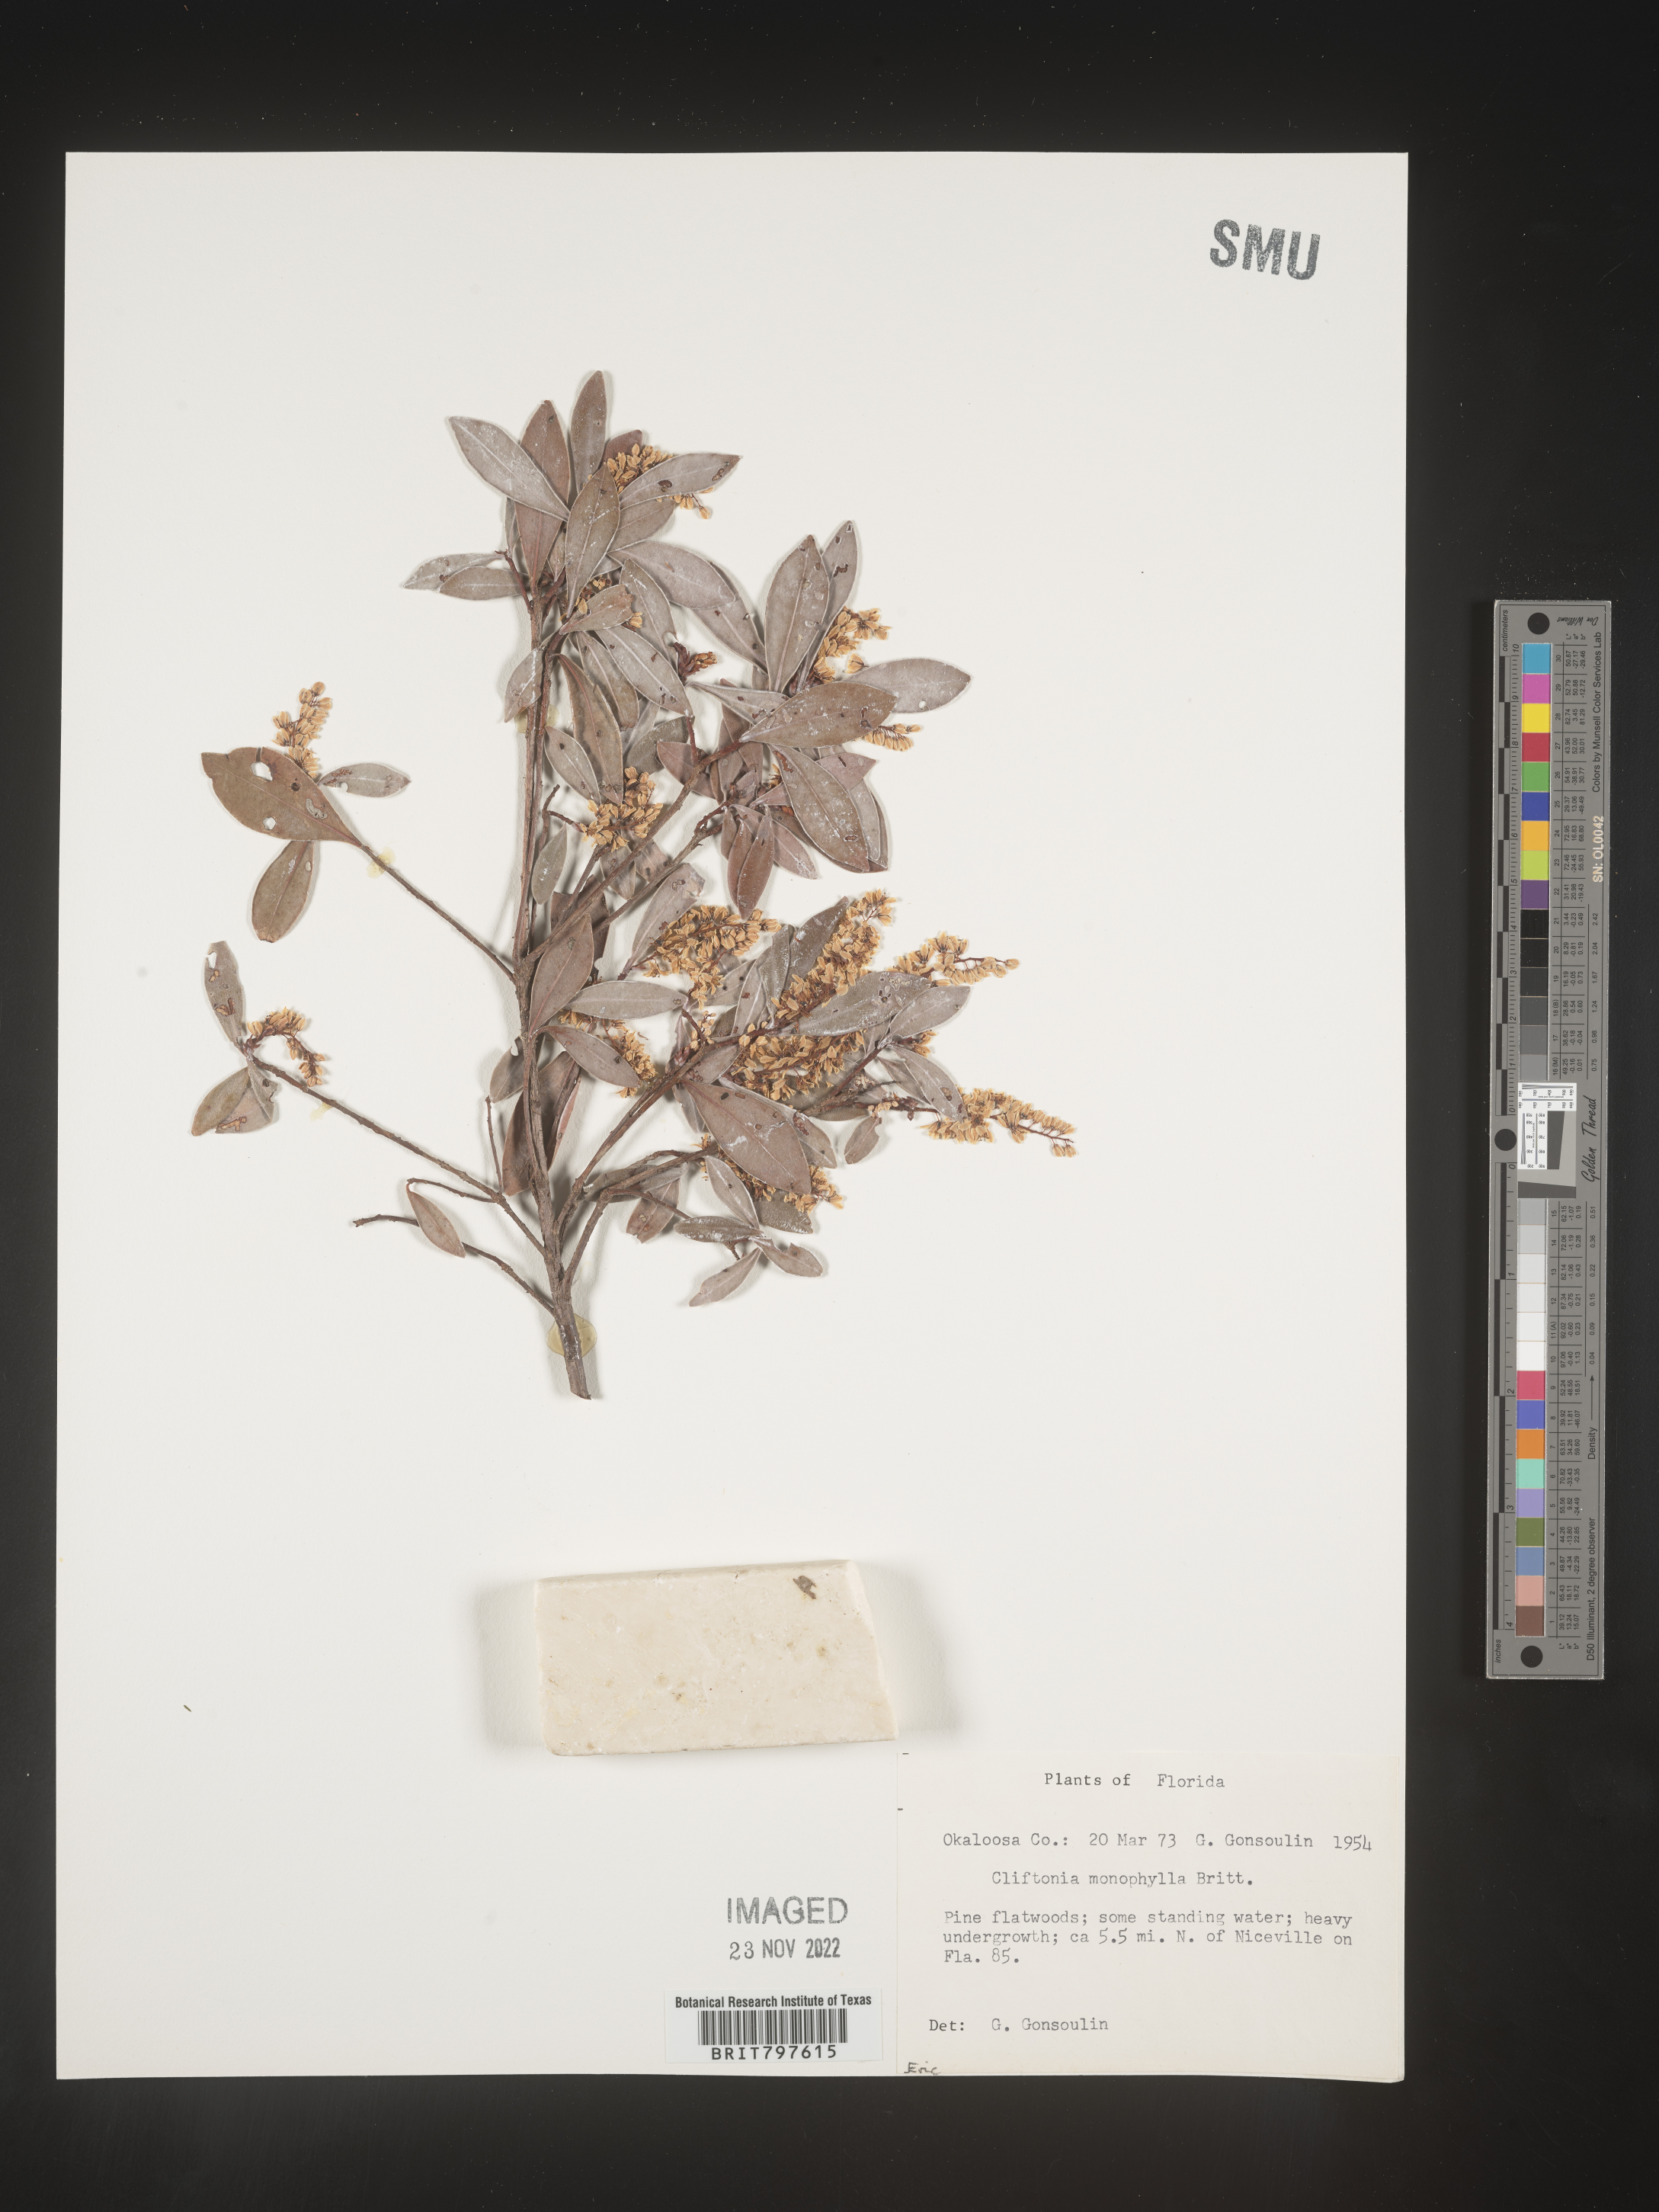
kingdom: Plantae
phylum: Tracheophyta
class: Magnoliopsida
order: Ericales
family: Cyrillaceae
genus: Cliftonia
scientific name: Cliftonia monophylla
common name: Titi
